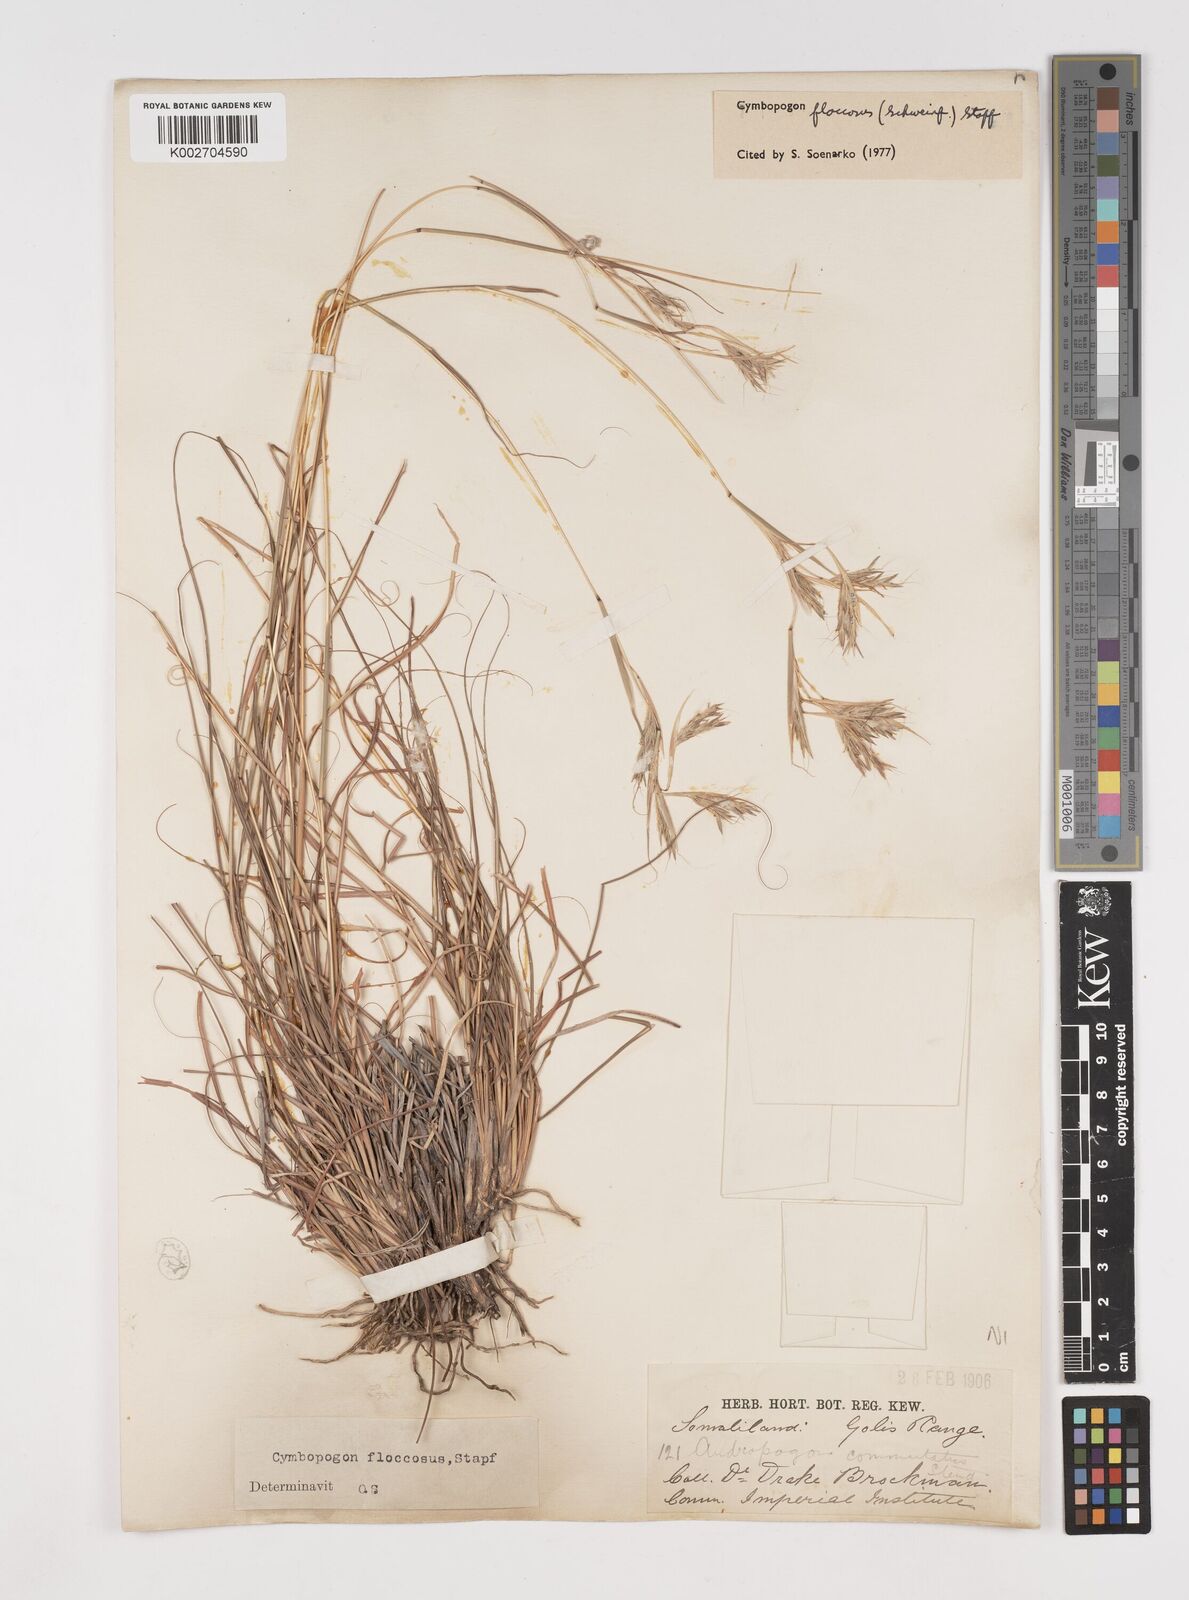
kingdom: Plantae
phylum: Tracheophyta
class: Liliopsida
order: Poales
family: Poaceae
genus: Cymbopogon
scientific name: Cymbopogon commutatus
